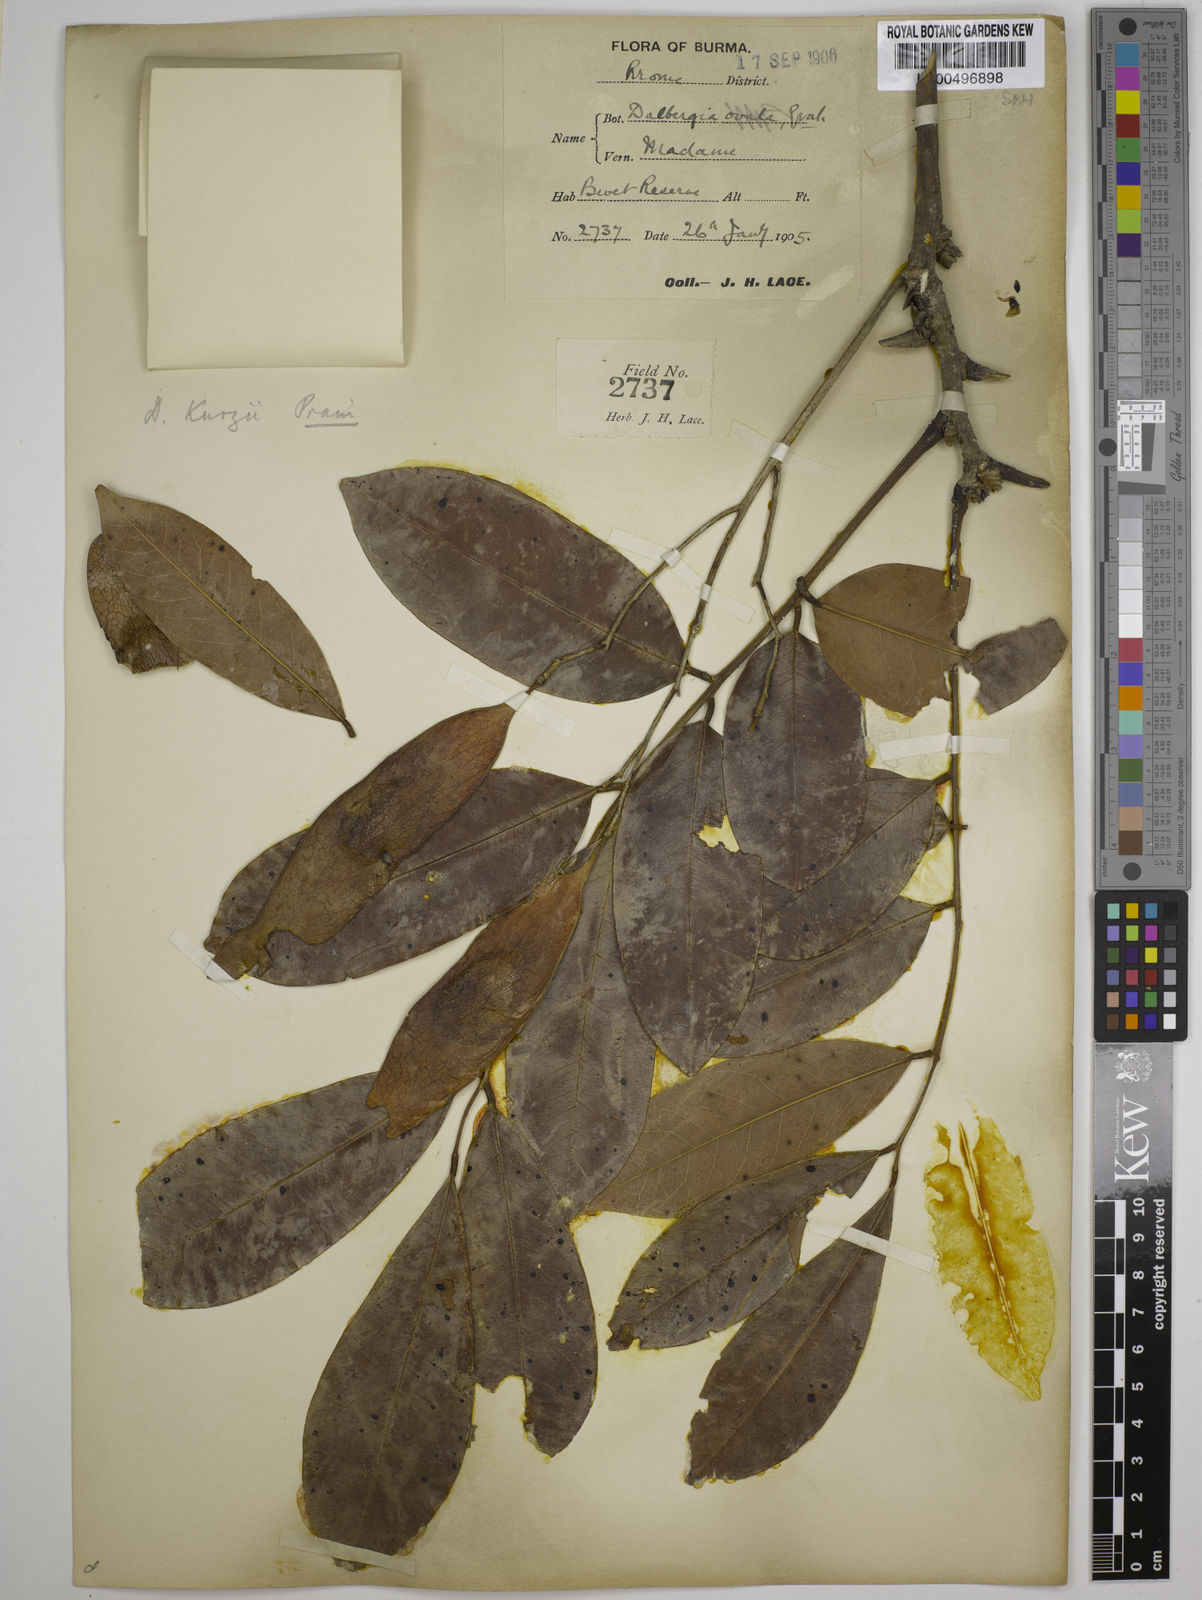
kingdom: Plantae
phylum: Tracheophyta
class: Magnoliopsida
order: Fabales
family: Fabaceae
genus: Dalbergia
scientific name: Dalbergia cana
